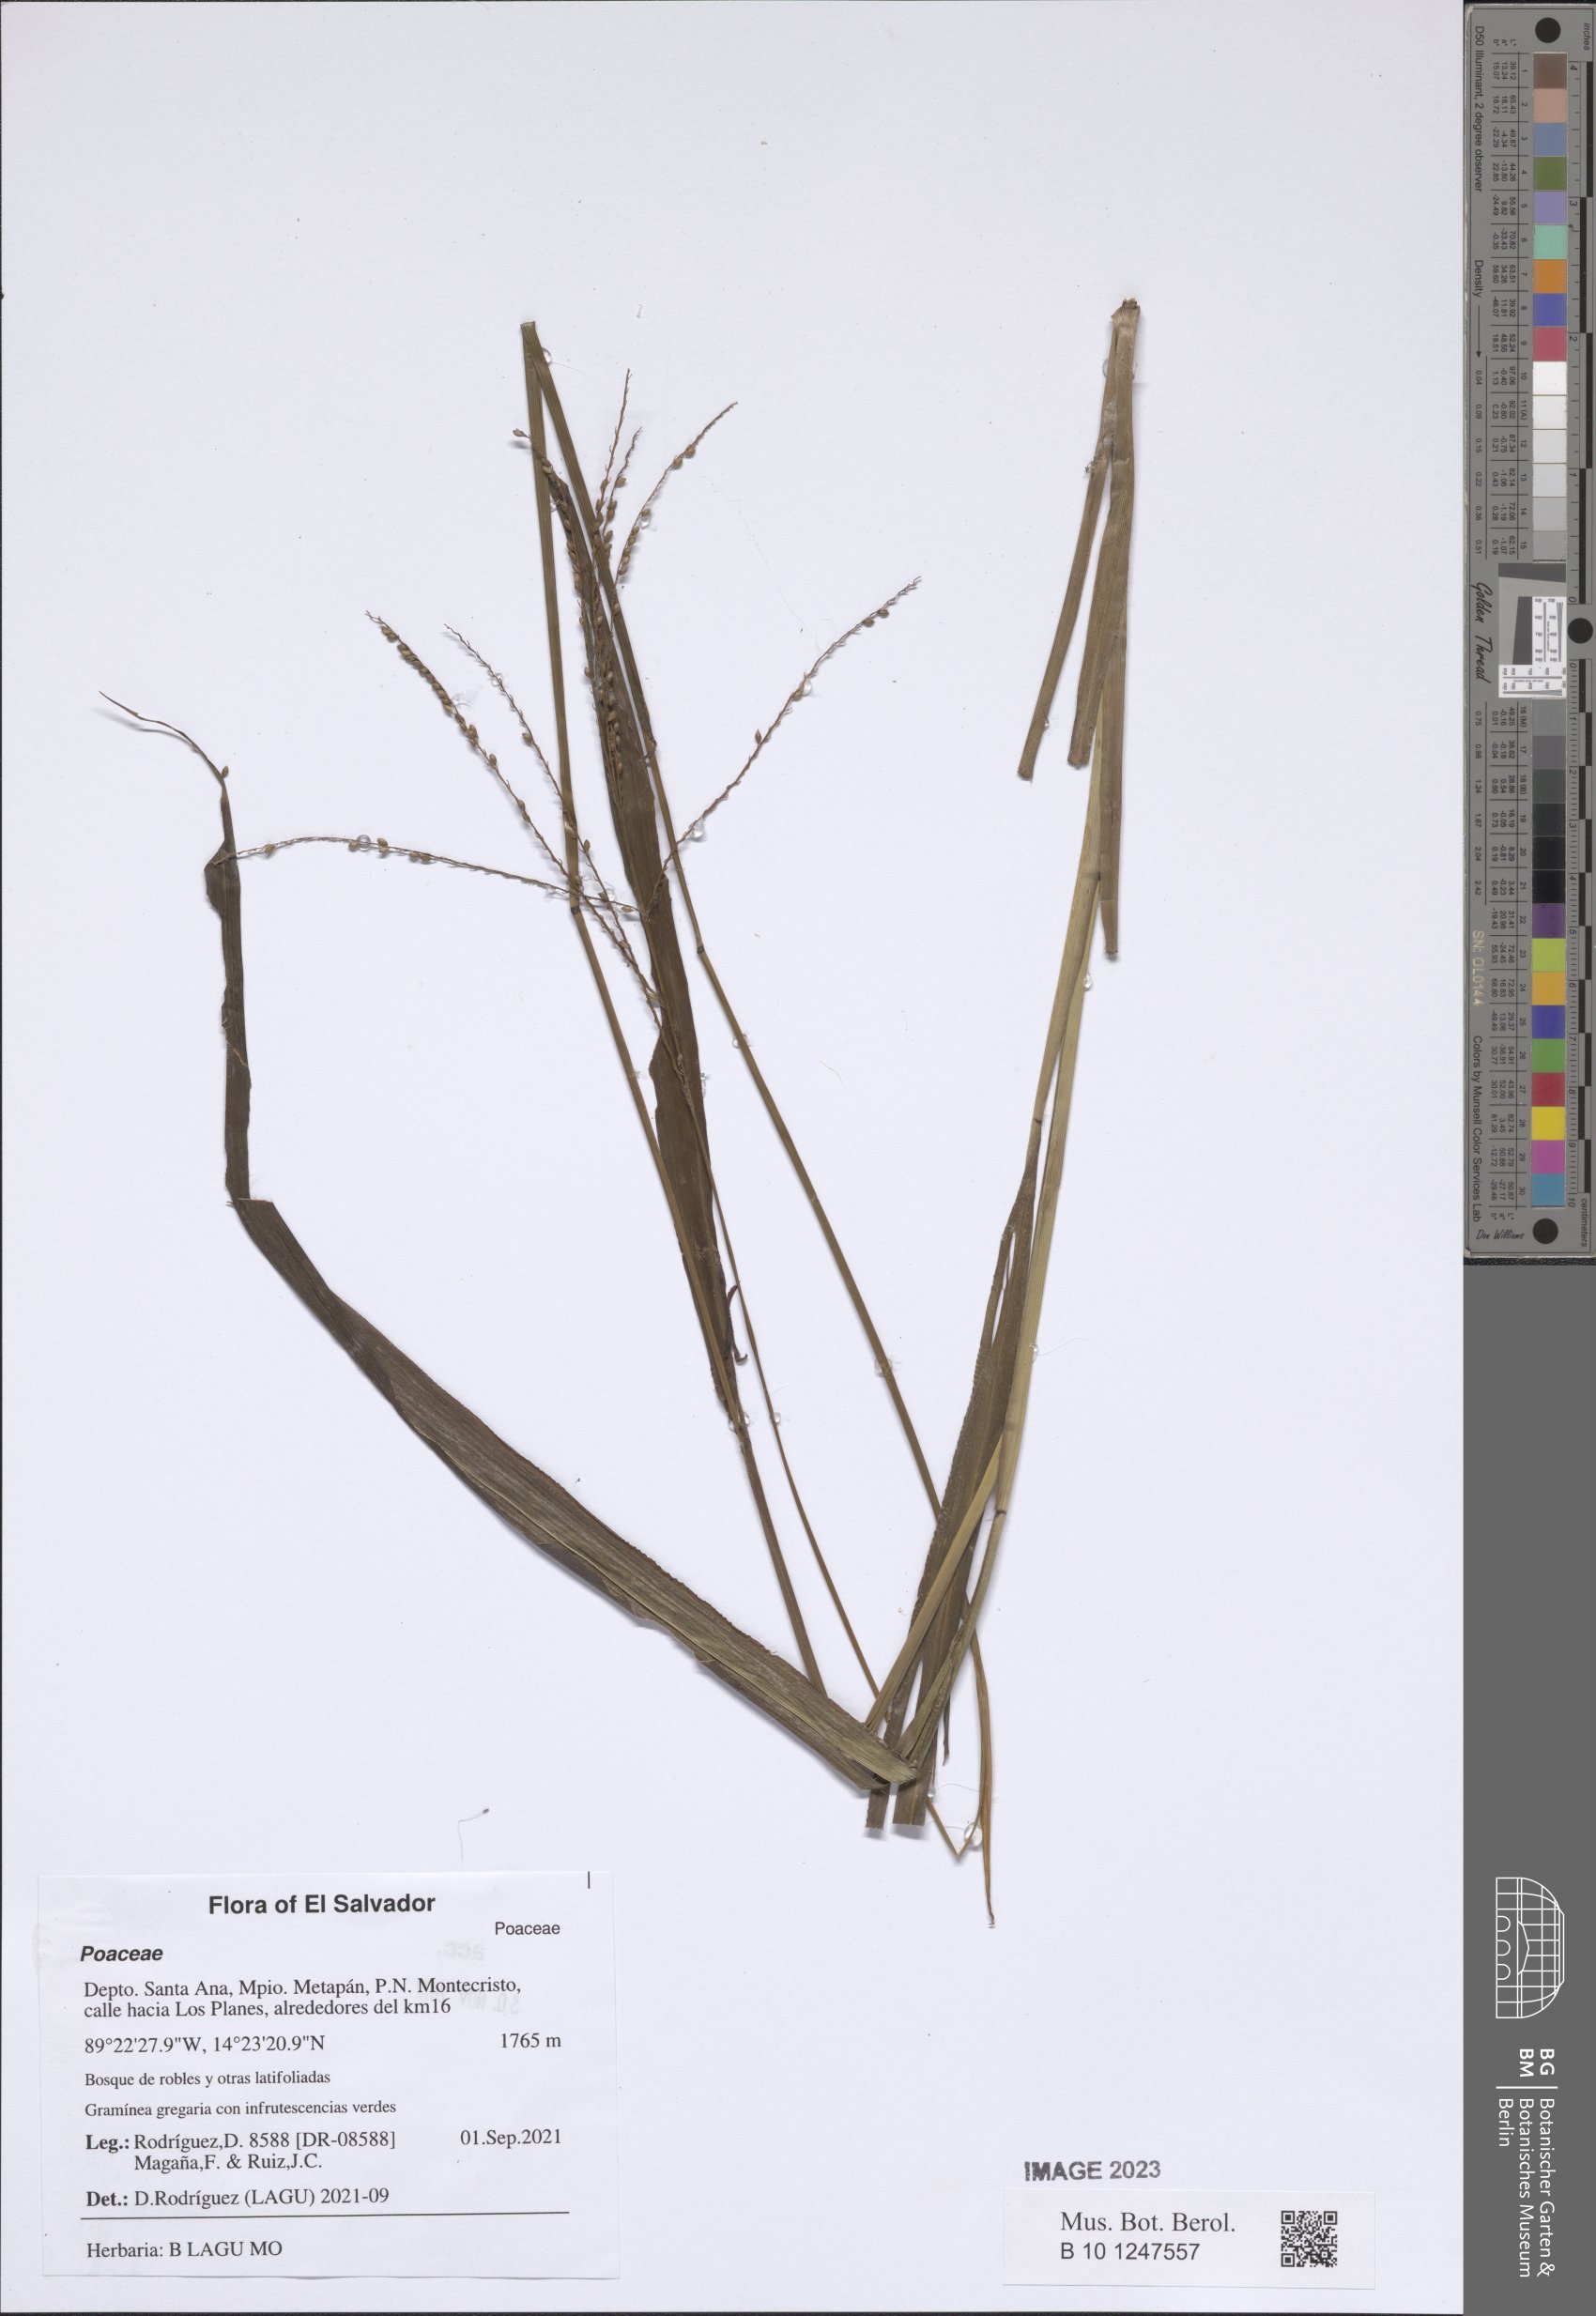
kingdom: Plantae
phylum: Tracheophyta
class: Liliopsida
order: Poales
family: Poaceae
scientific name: Poaceae
